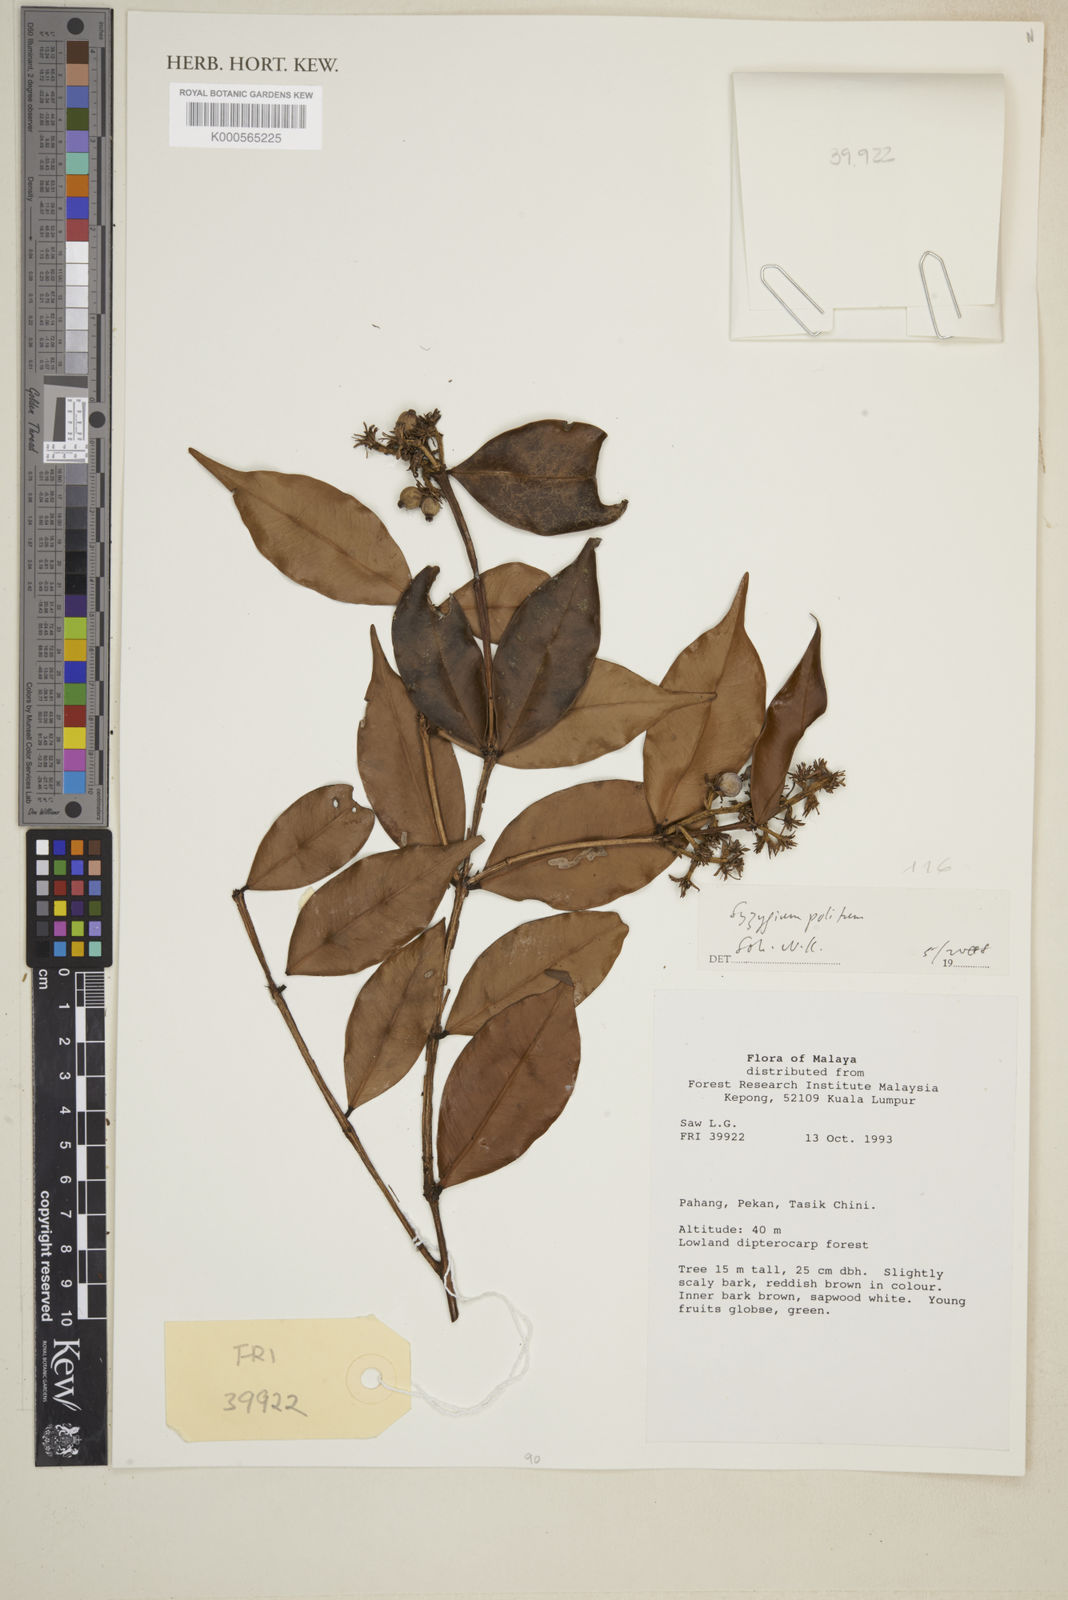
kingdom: Plantae
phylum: Tracheophyta
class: Magnoliopsida
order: Myrtales
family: Myrtaceae
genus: Syzygium
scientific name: Syzygium politum
